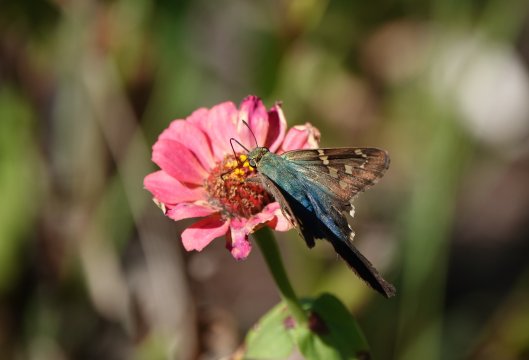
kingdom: Animalia
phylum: Arthropoda
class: Insecta
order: Lepidoptera
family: Hesperiidae
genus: Urbanus
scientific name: Urbanus proteus
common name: Long-tailed Skipper
